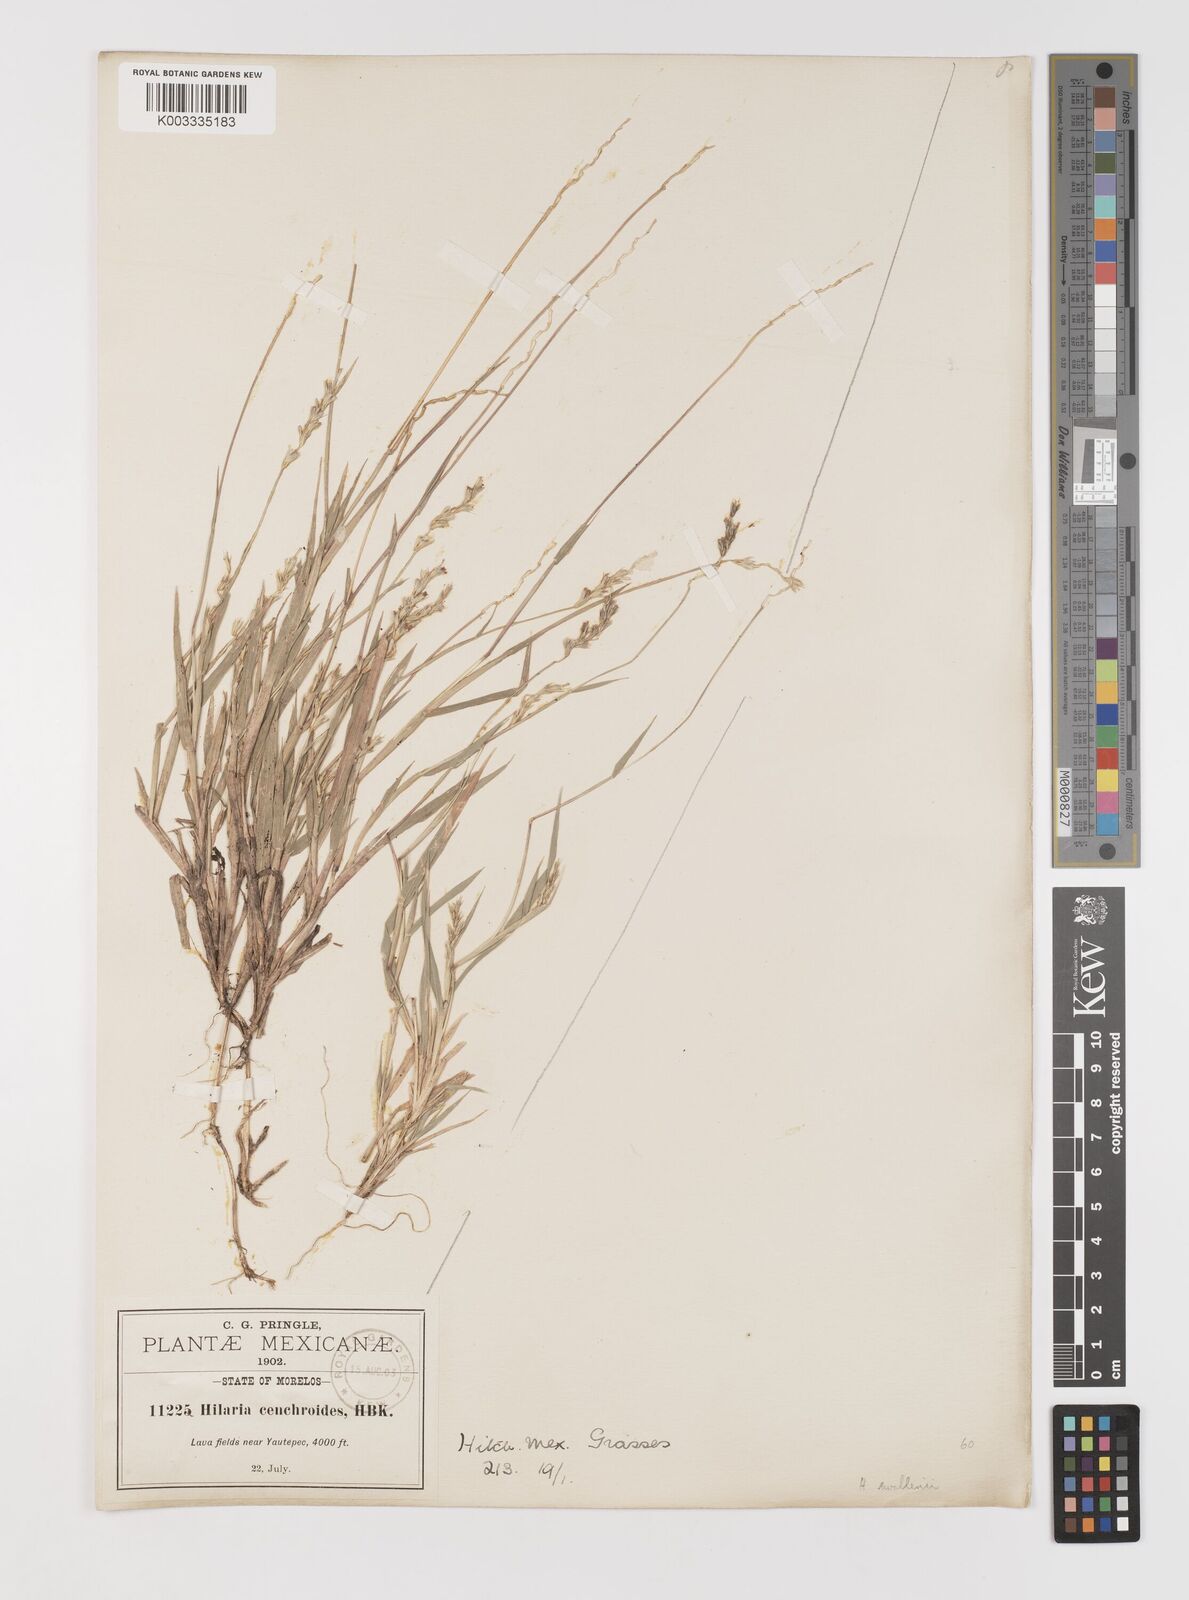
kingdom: Plantae
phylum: Tracheophyta
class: Liliopsida
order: Poales
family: Poaceae
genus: Hilaria
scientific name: Hilaria swallenii
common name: Swallen's curly-mesquite
